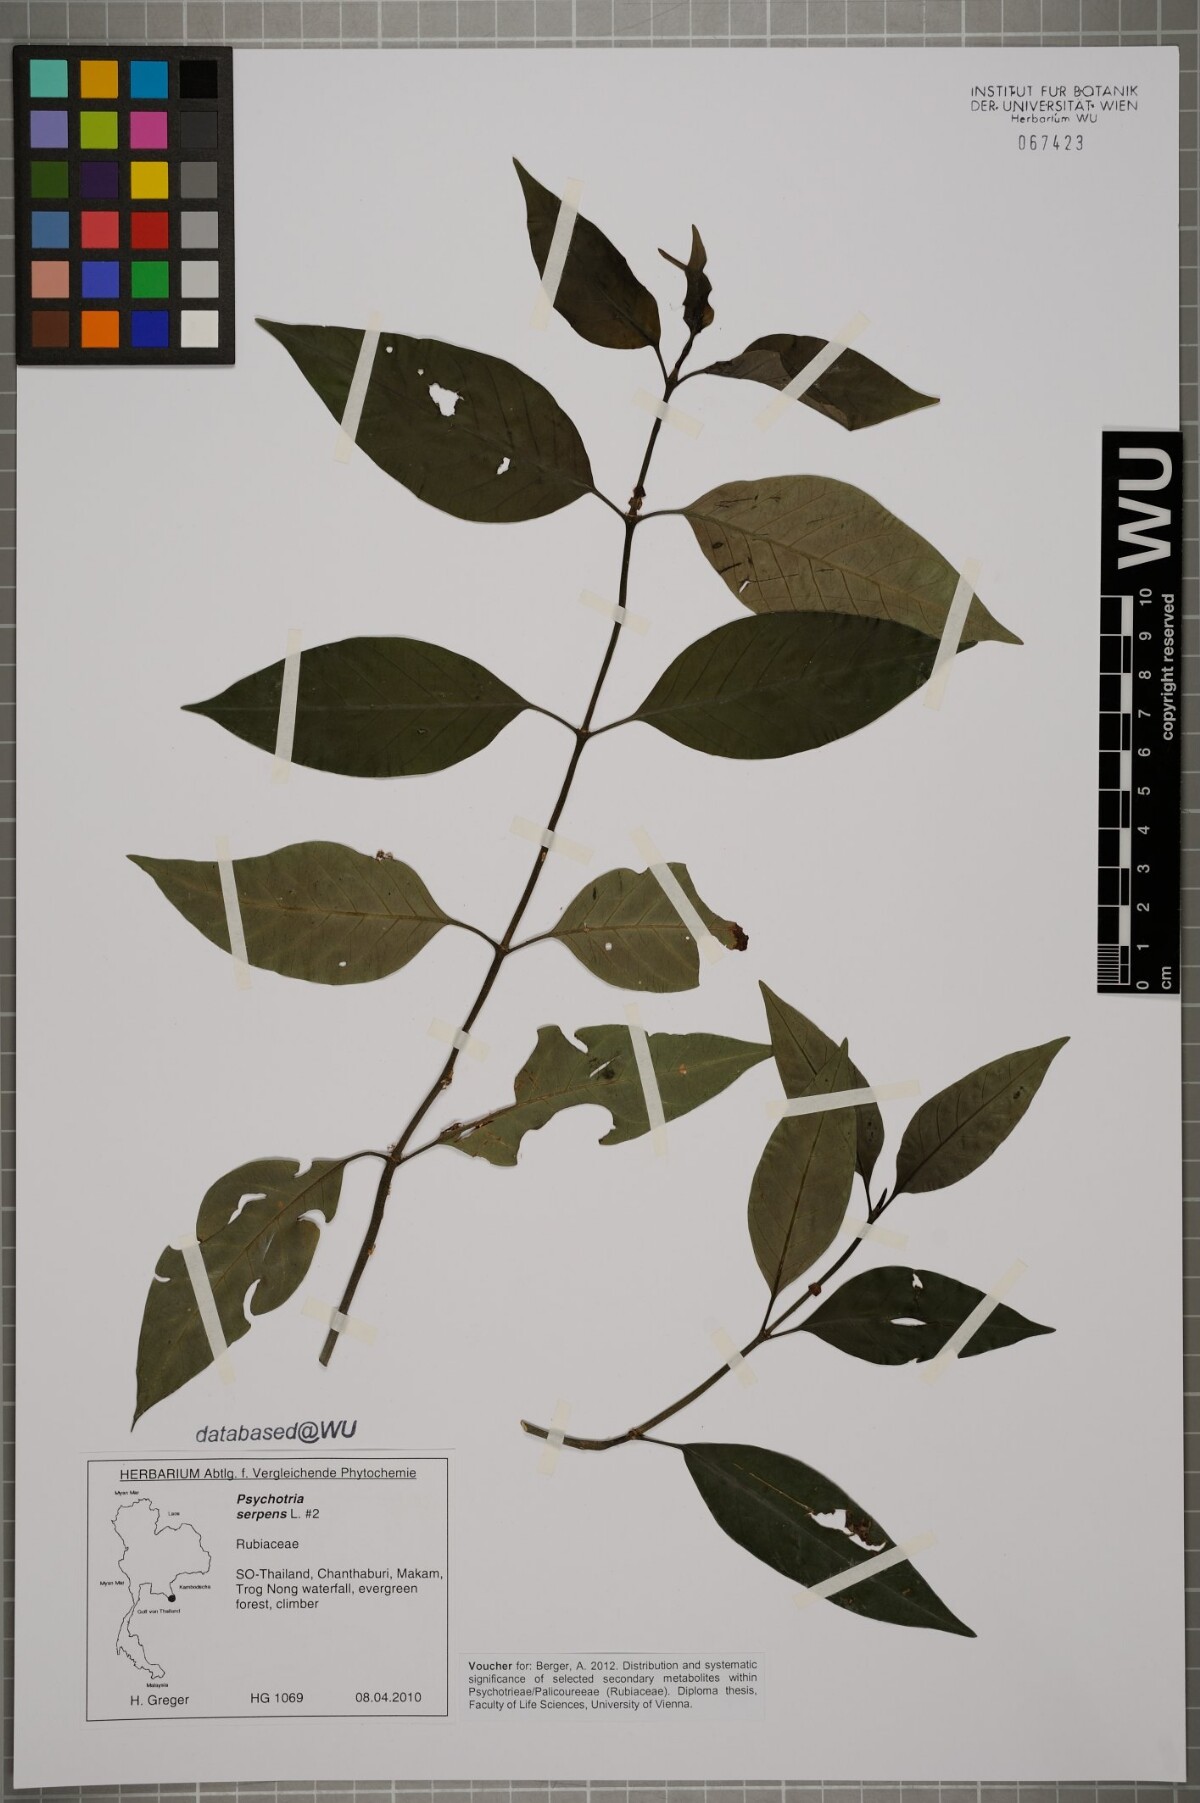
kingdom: Plantae
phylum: Tracheophyta
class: Magnoliopsida
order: Gentianales
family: Rubiaceae
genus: Psychotria
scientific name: Psychotria serpens
